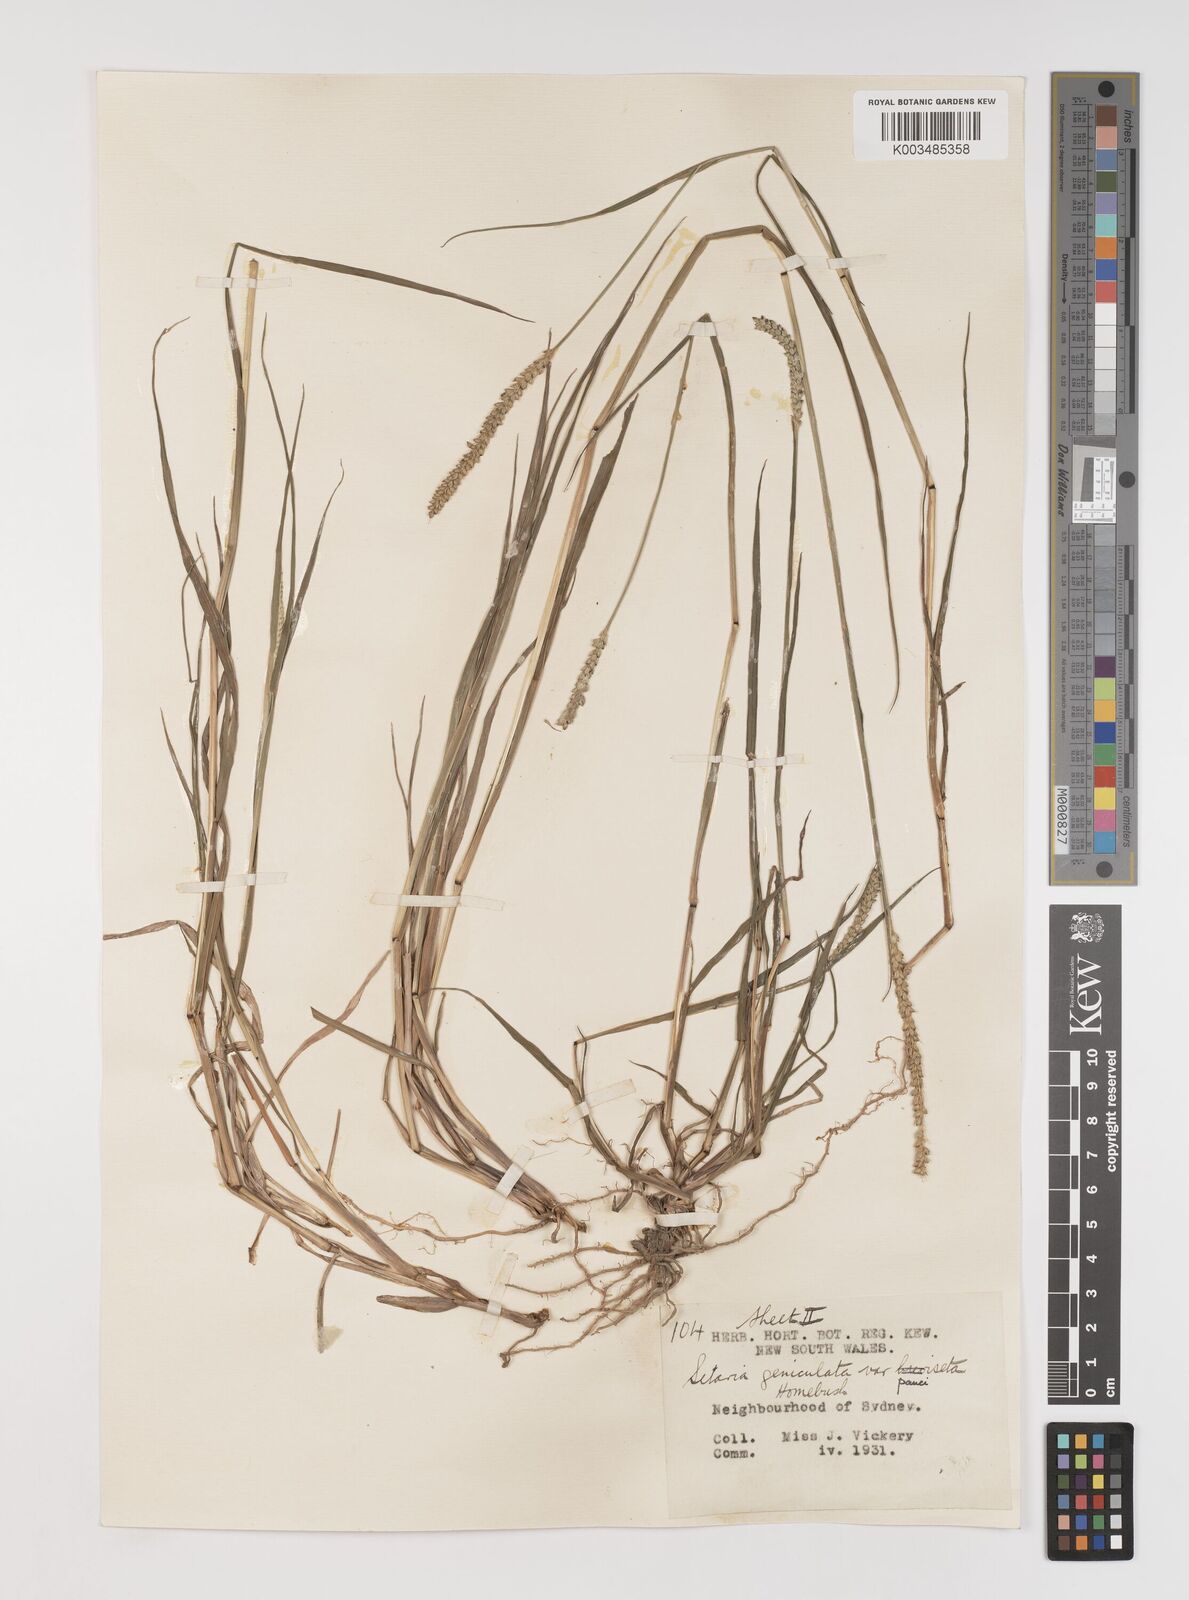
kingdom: Plantae
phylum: Tracheophyta
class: Liliopsida
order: Poales
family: Poaceae
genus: Setaria
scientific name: Setaria parviflora
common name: Knotroot bristle-grass
